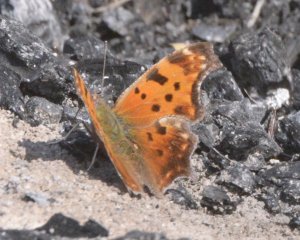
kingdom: Animalia
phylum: Arthropoda
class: Insecta
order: Lepidoptera
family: Nymphalidae
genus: Polygonia
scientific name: Polygonia comma
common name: Eastern Comma
